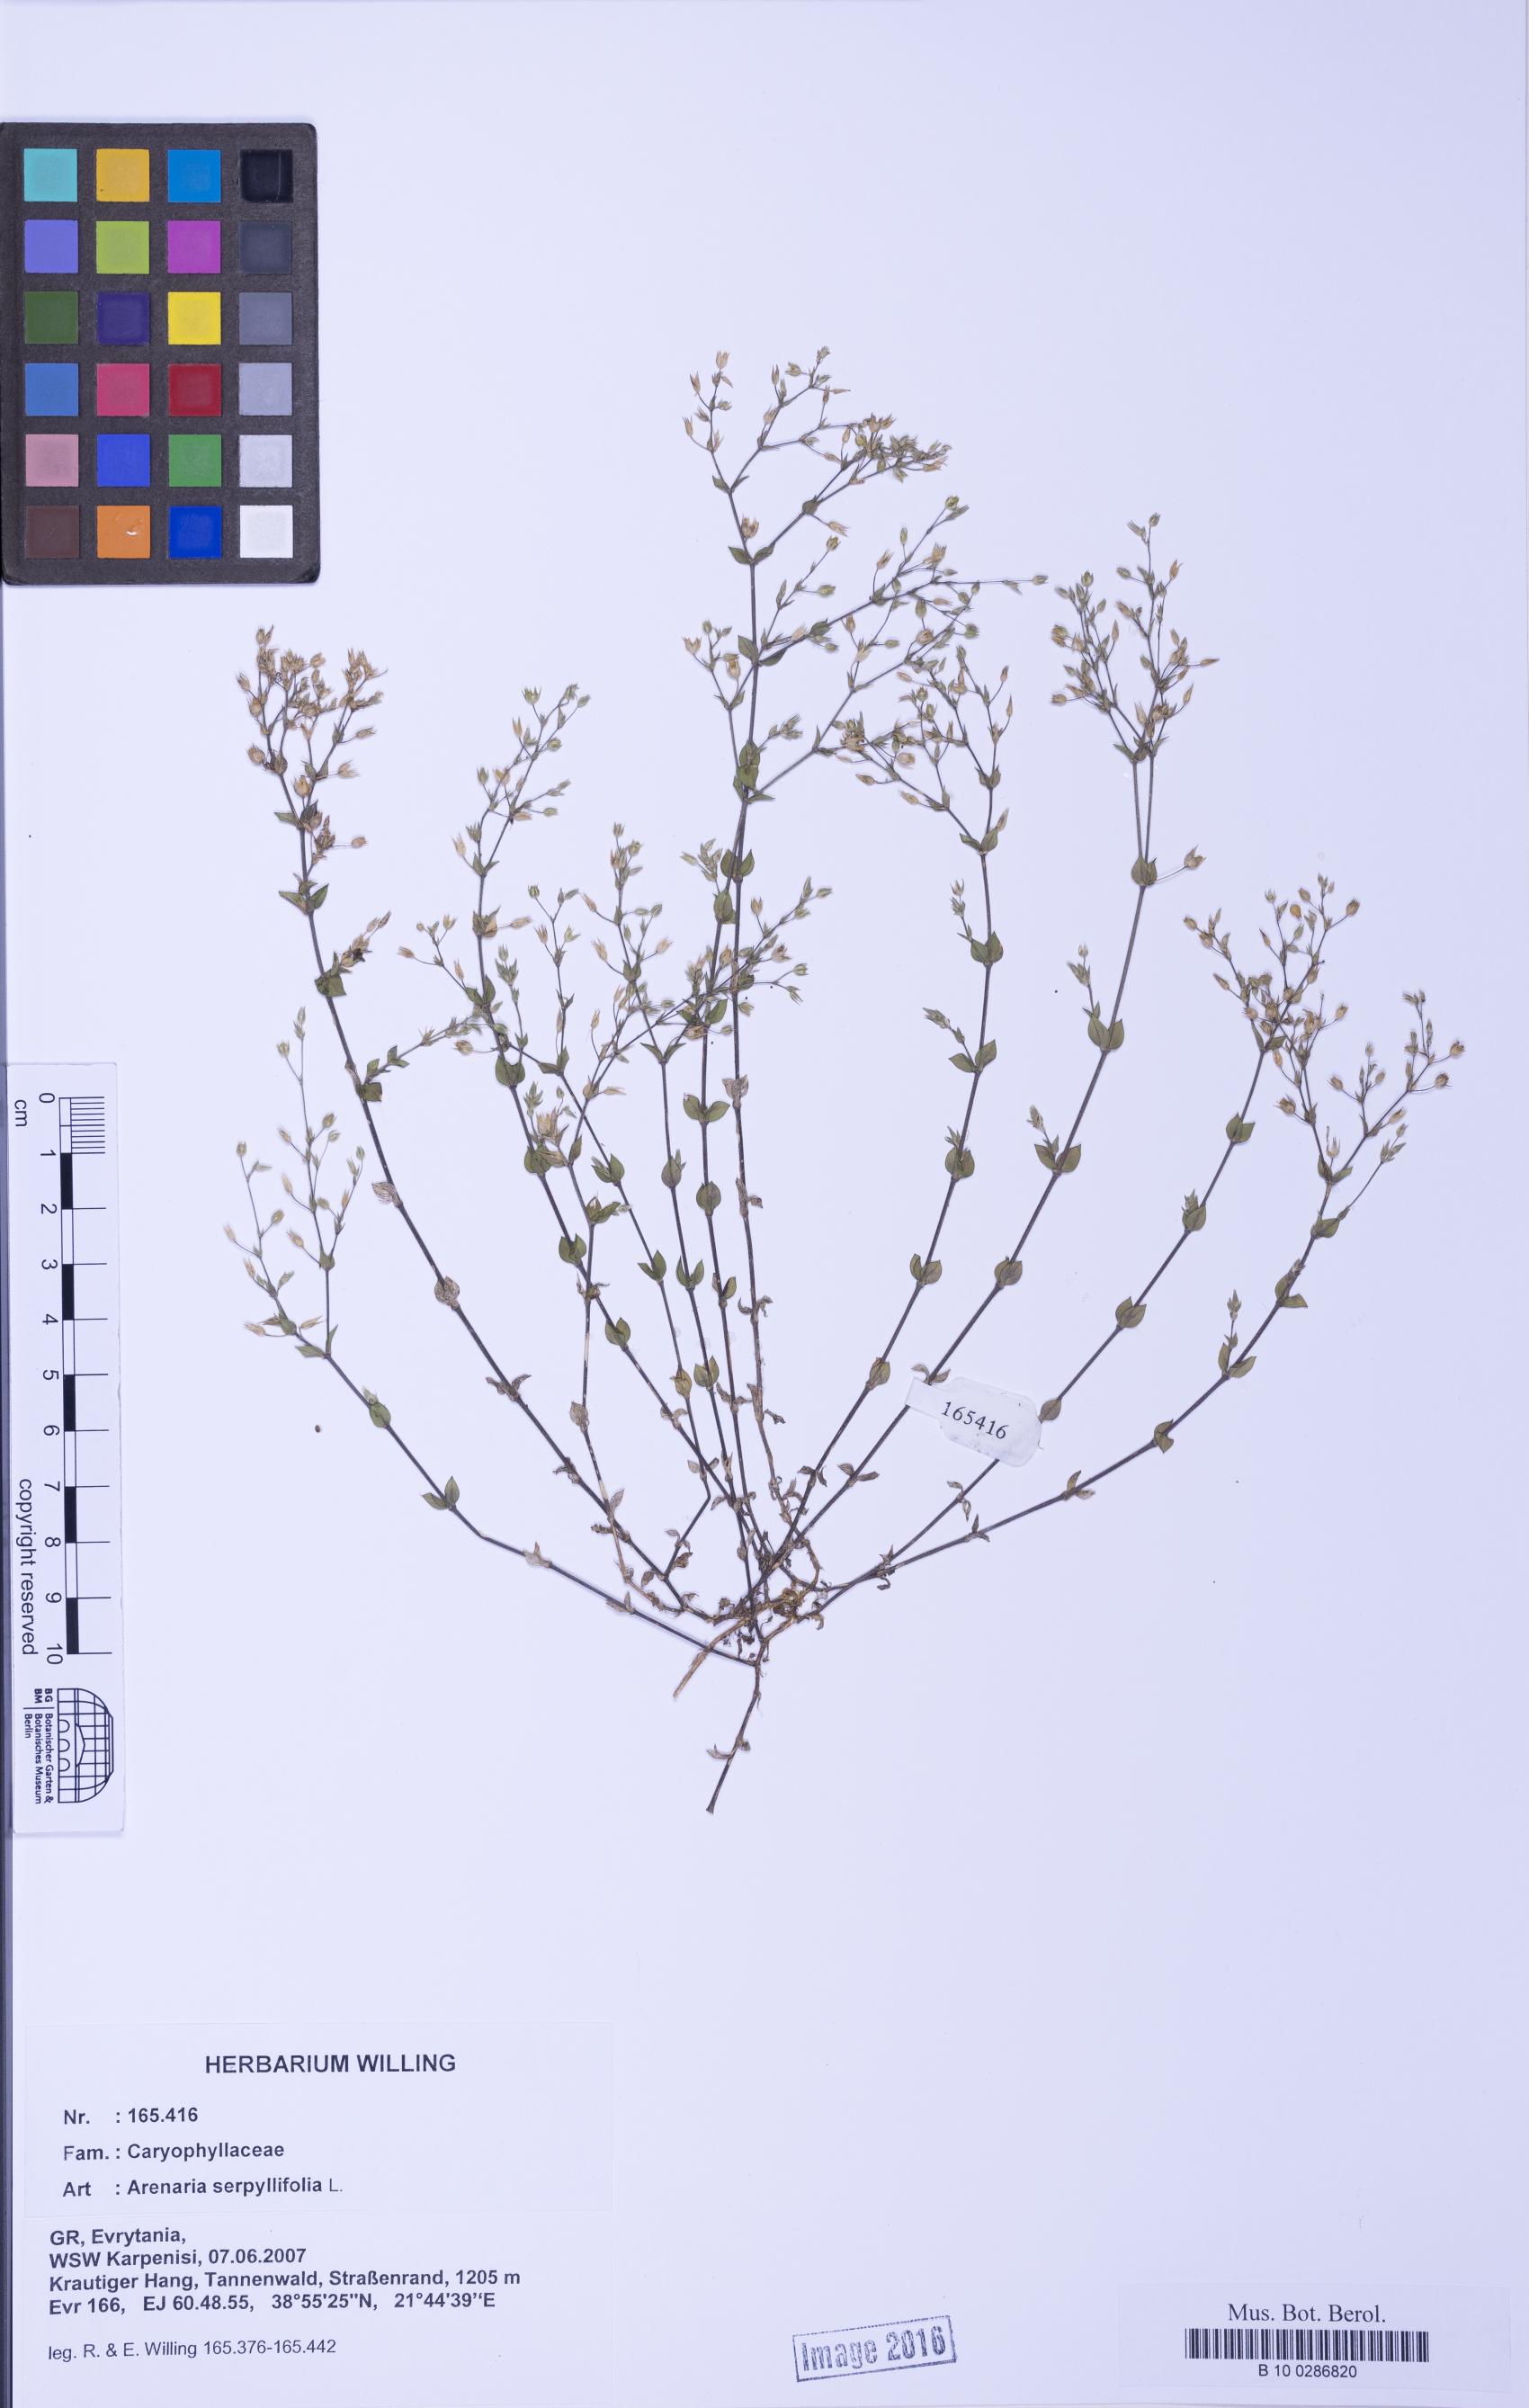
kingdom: Plantae
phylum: Tracheophyta
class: Magnoliopsida
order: Caryophyllales
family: Caryophyllaceae
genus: Arenaria
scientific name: Arenaria serpyllifolia
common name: Thyme-leaved sandwort
